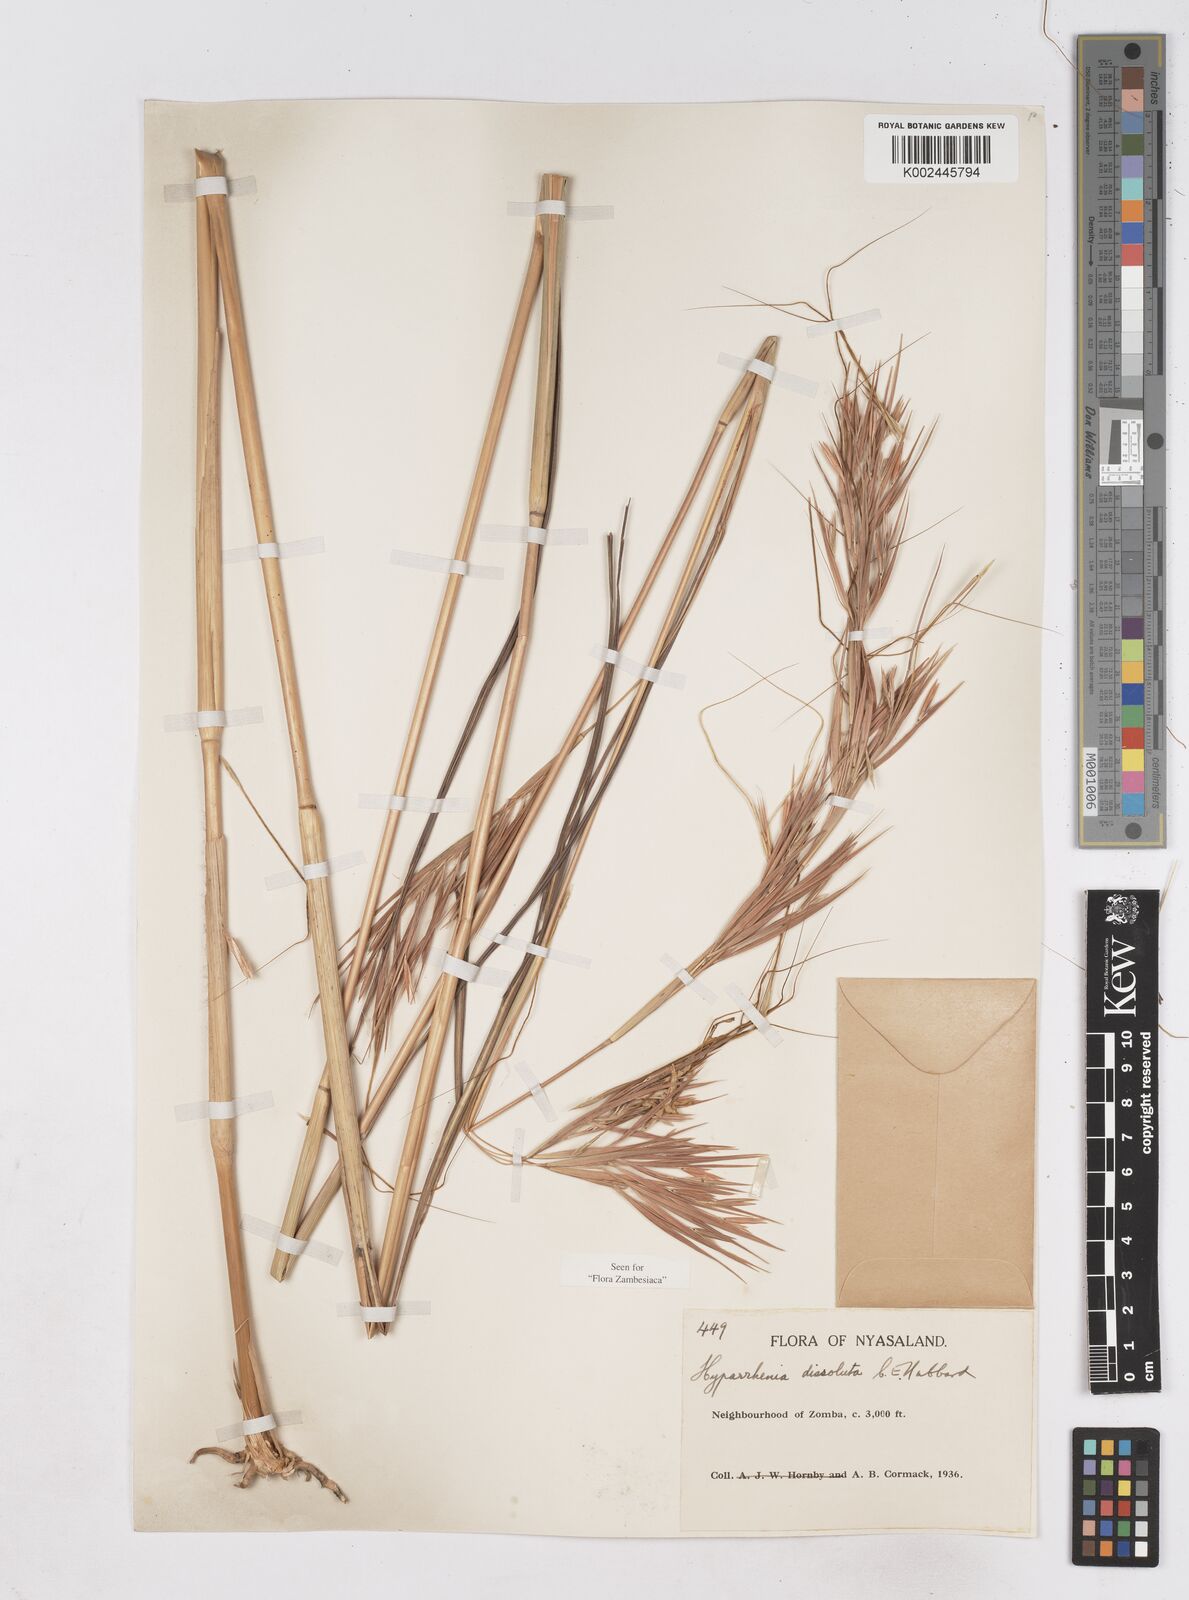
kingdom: Plantae
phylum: Tracheophyta
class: Liliopsida
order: Poales
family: Poaceae
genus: Hyperthelia
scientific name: Hyperthelia dissoluta
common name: Yellow thatching grass
